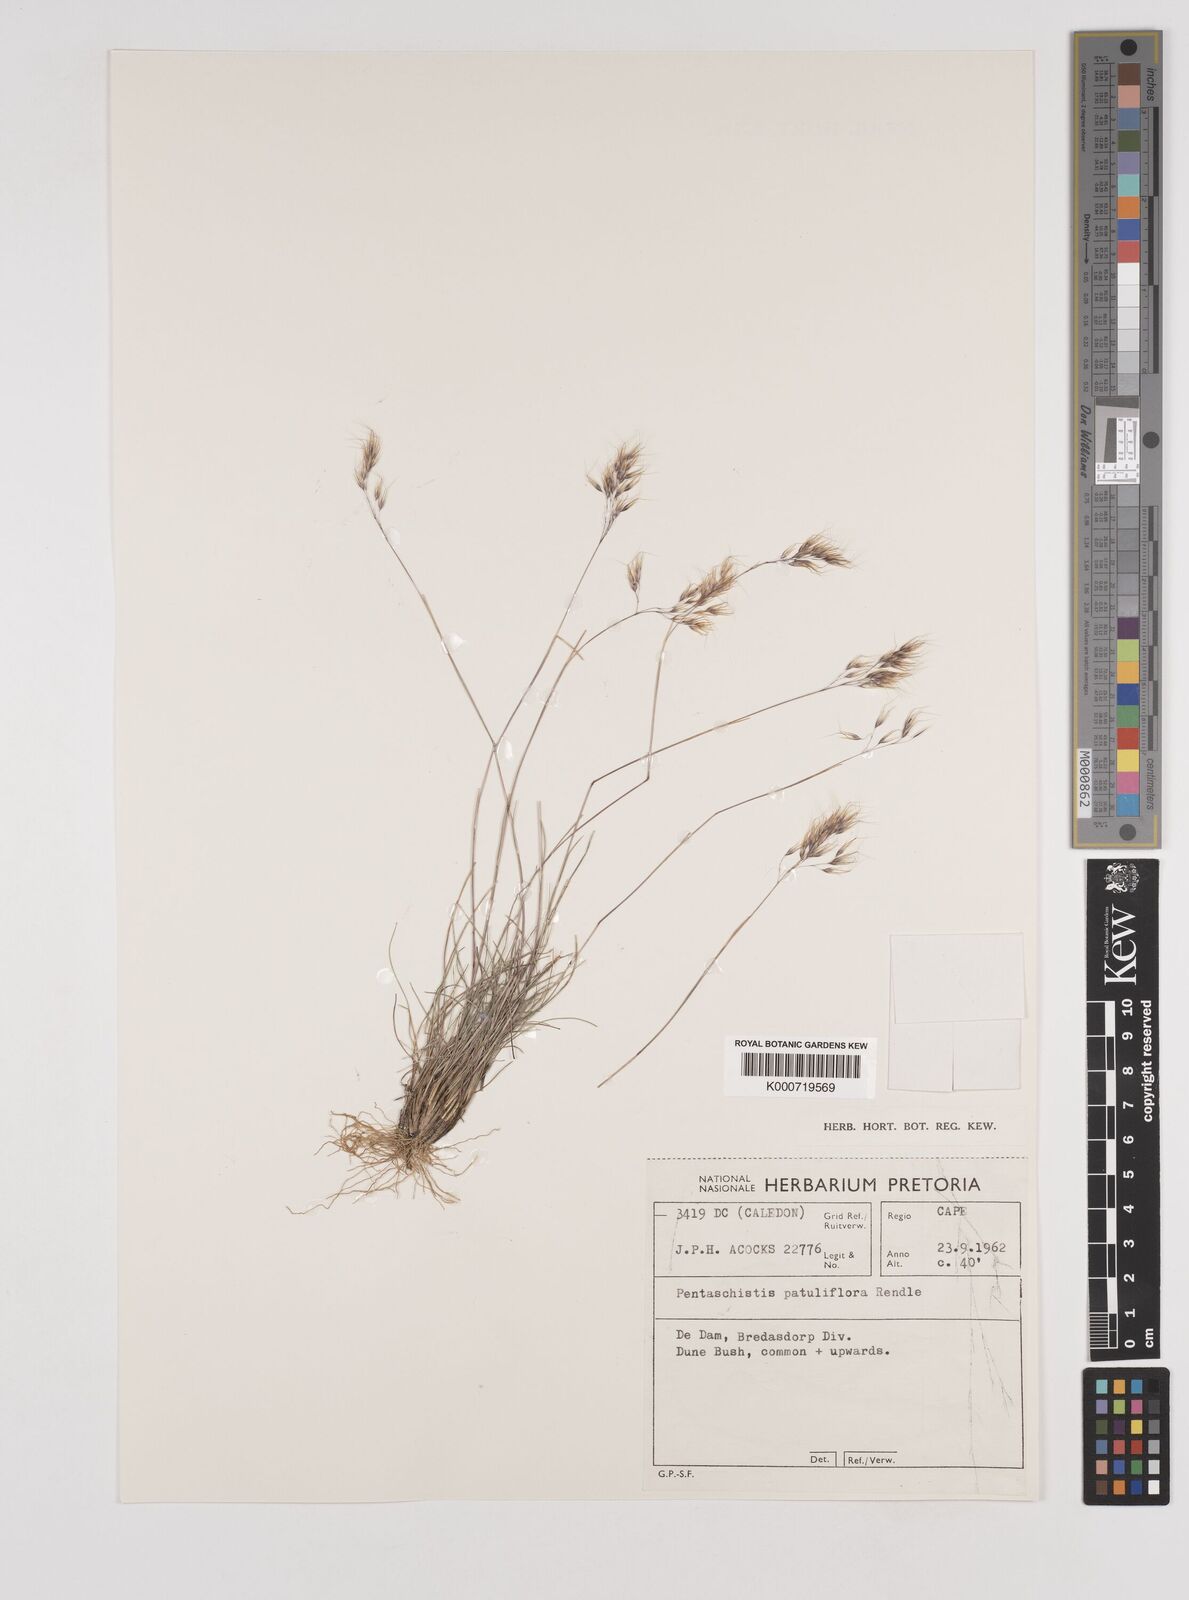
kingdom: Plantae
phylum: Tracheophyta
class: Liliopsida
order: Poales
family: Poaceae
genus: Pentameris
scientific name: Pentameris calcicola
